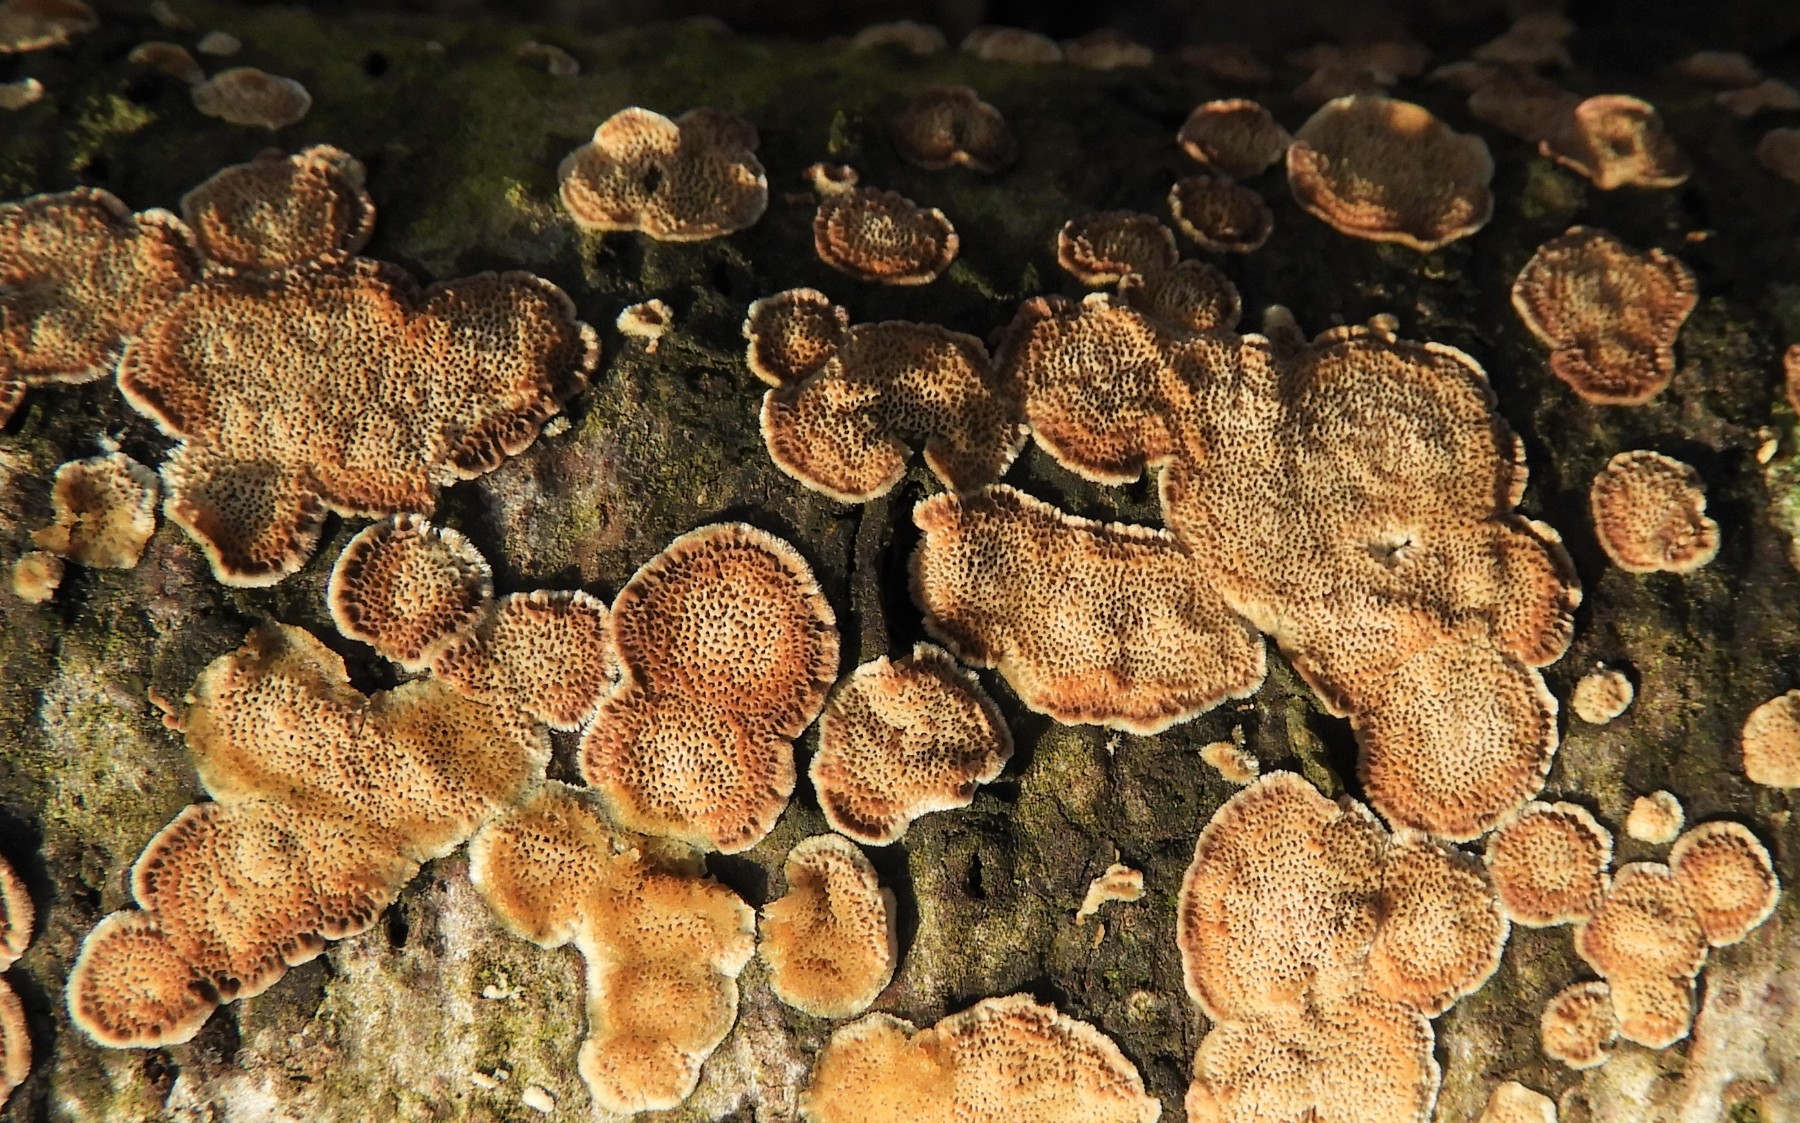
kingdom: Fungi
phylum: Basidiomycota
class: Agaricomycetes
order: Polyporales
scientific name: Polyporales
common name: poresvampordenen
